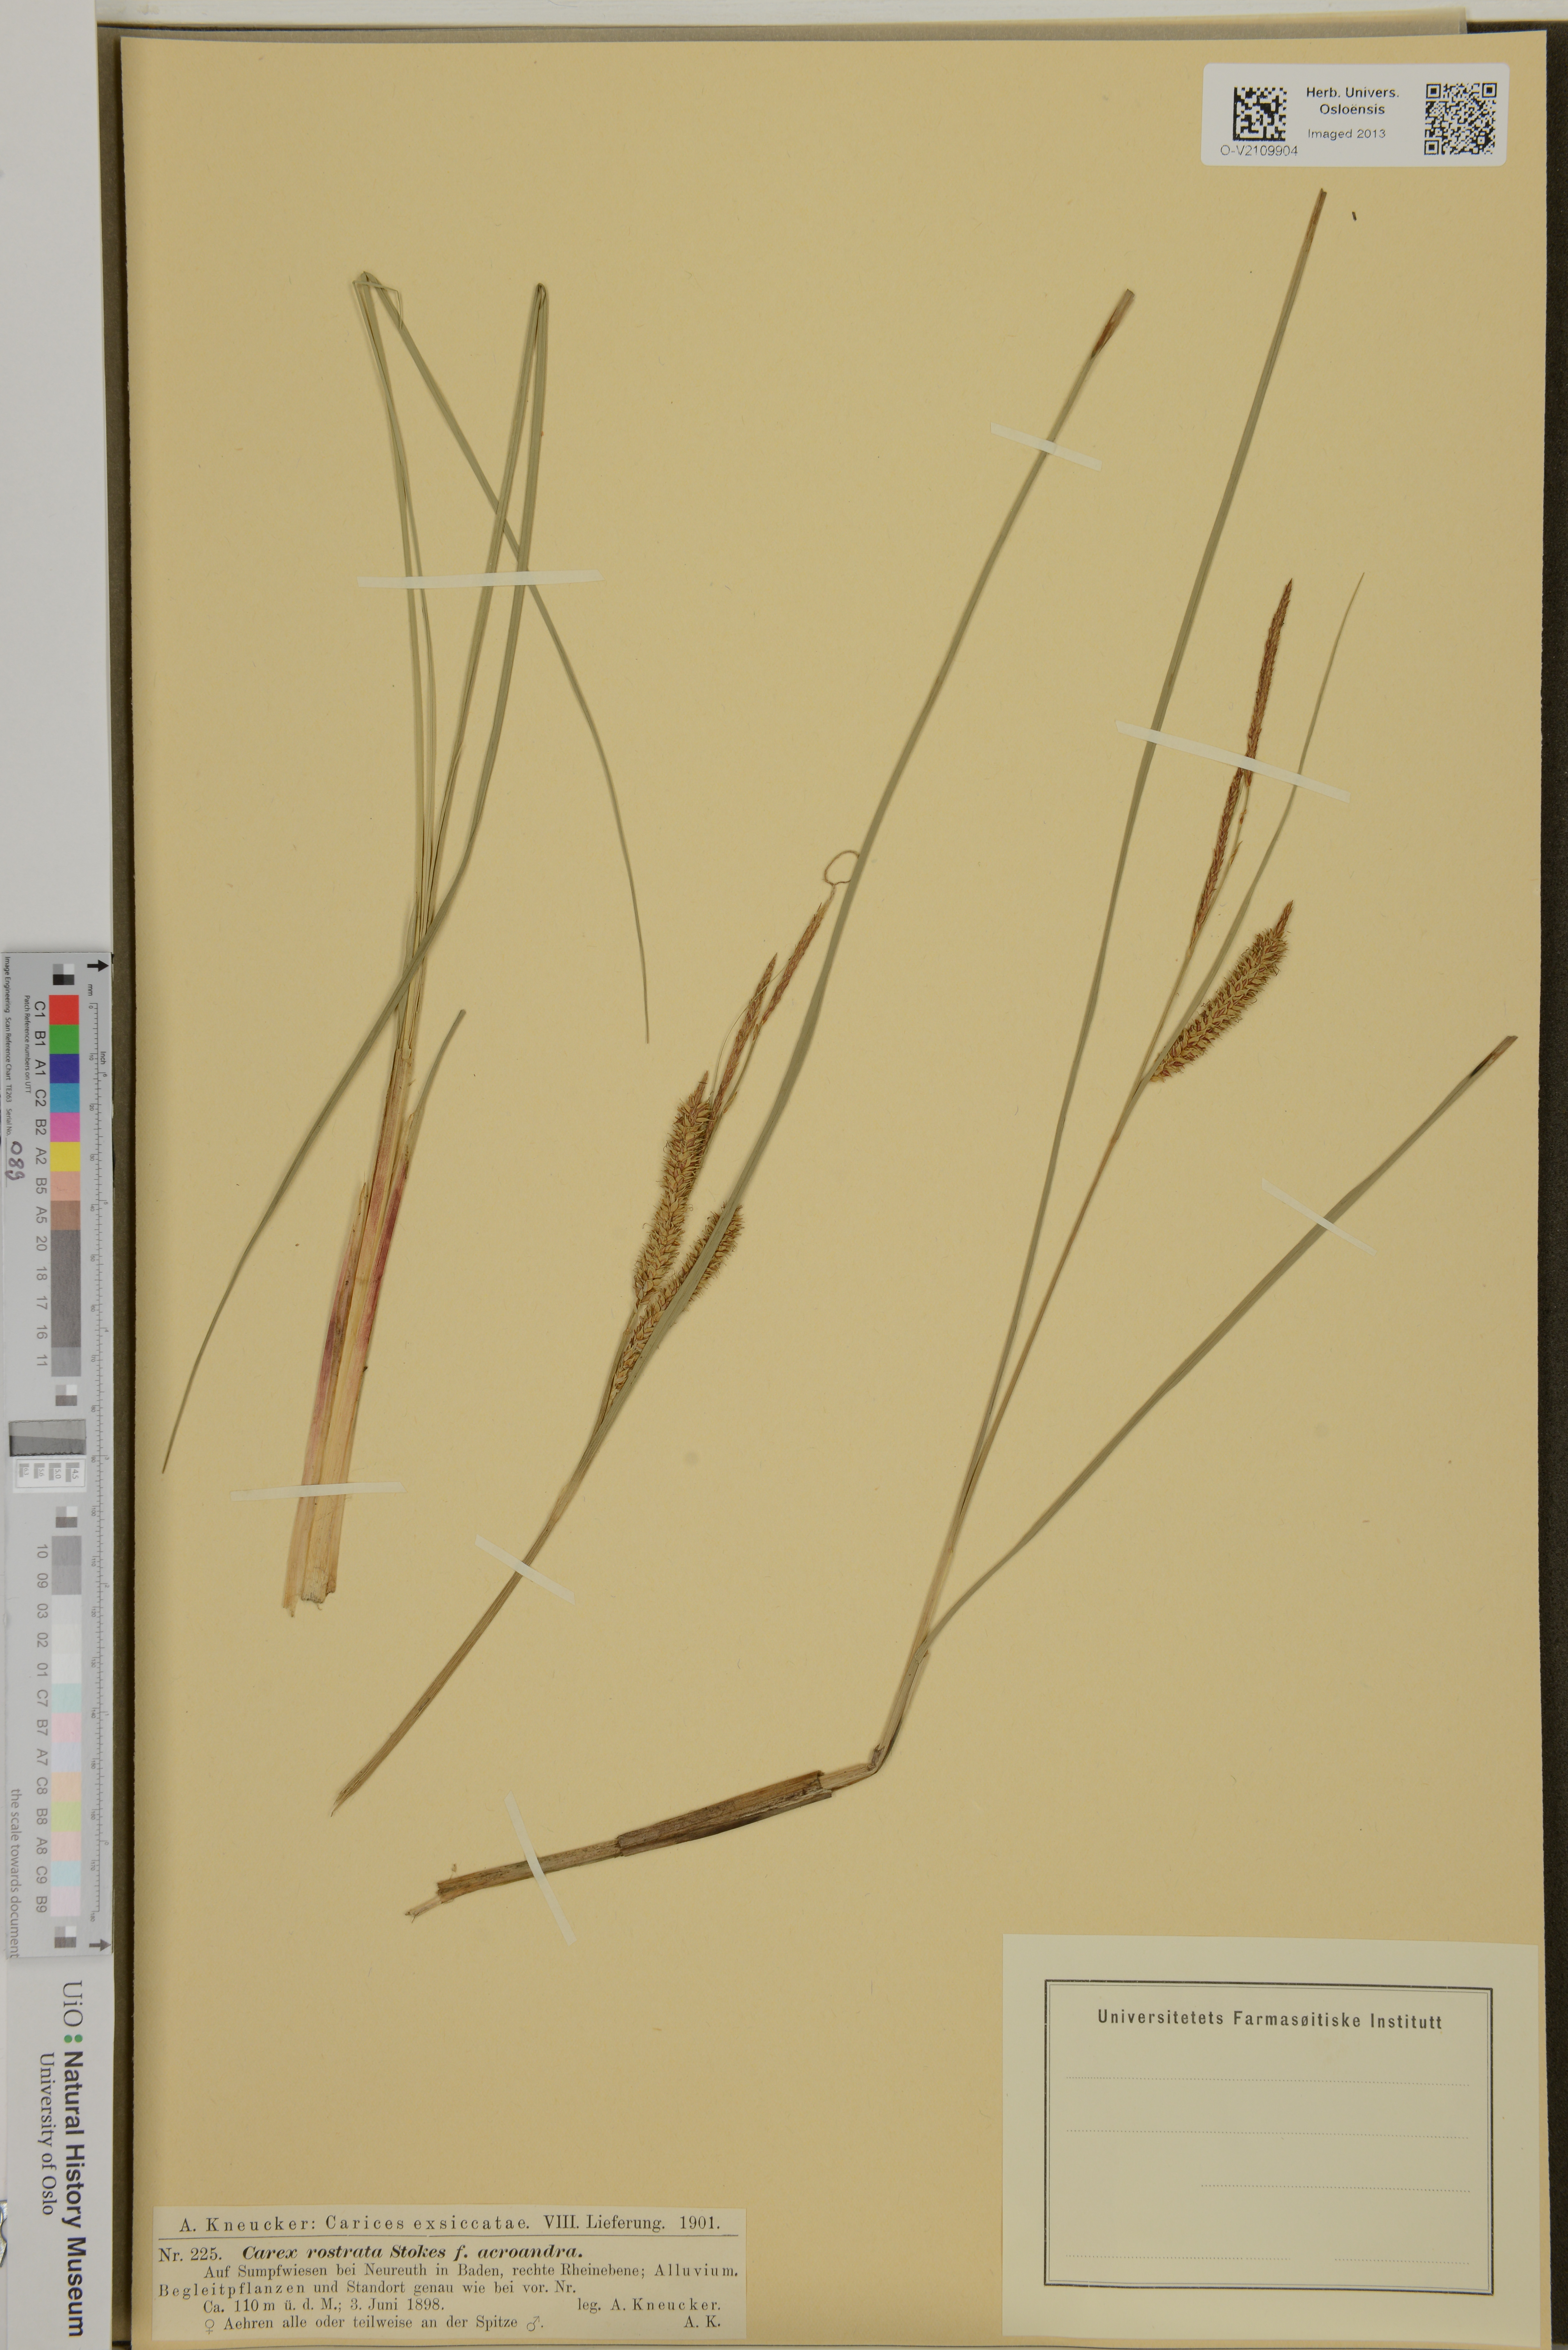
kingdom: Plantae
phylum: Tracheophyta
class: Liliopsida
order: Poales
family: Cyperaceae
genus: Carex
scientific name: Carex rostrata
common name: Bottle sedge
